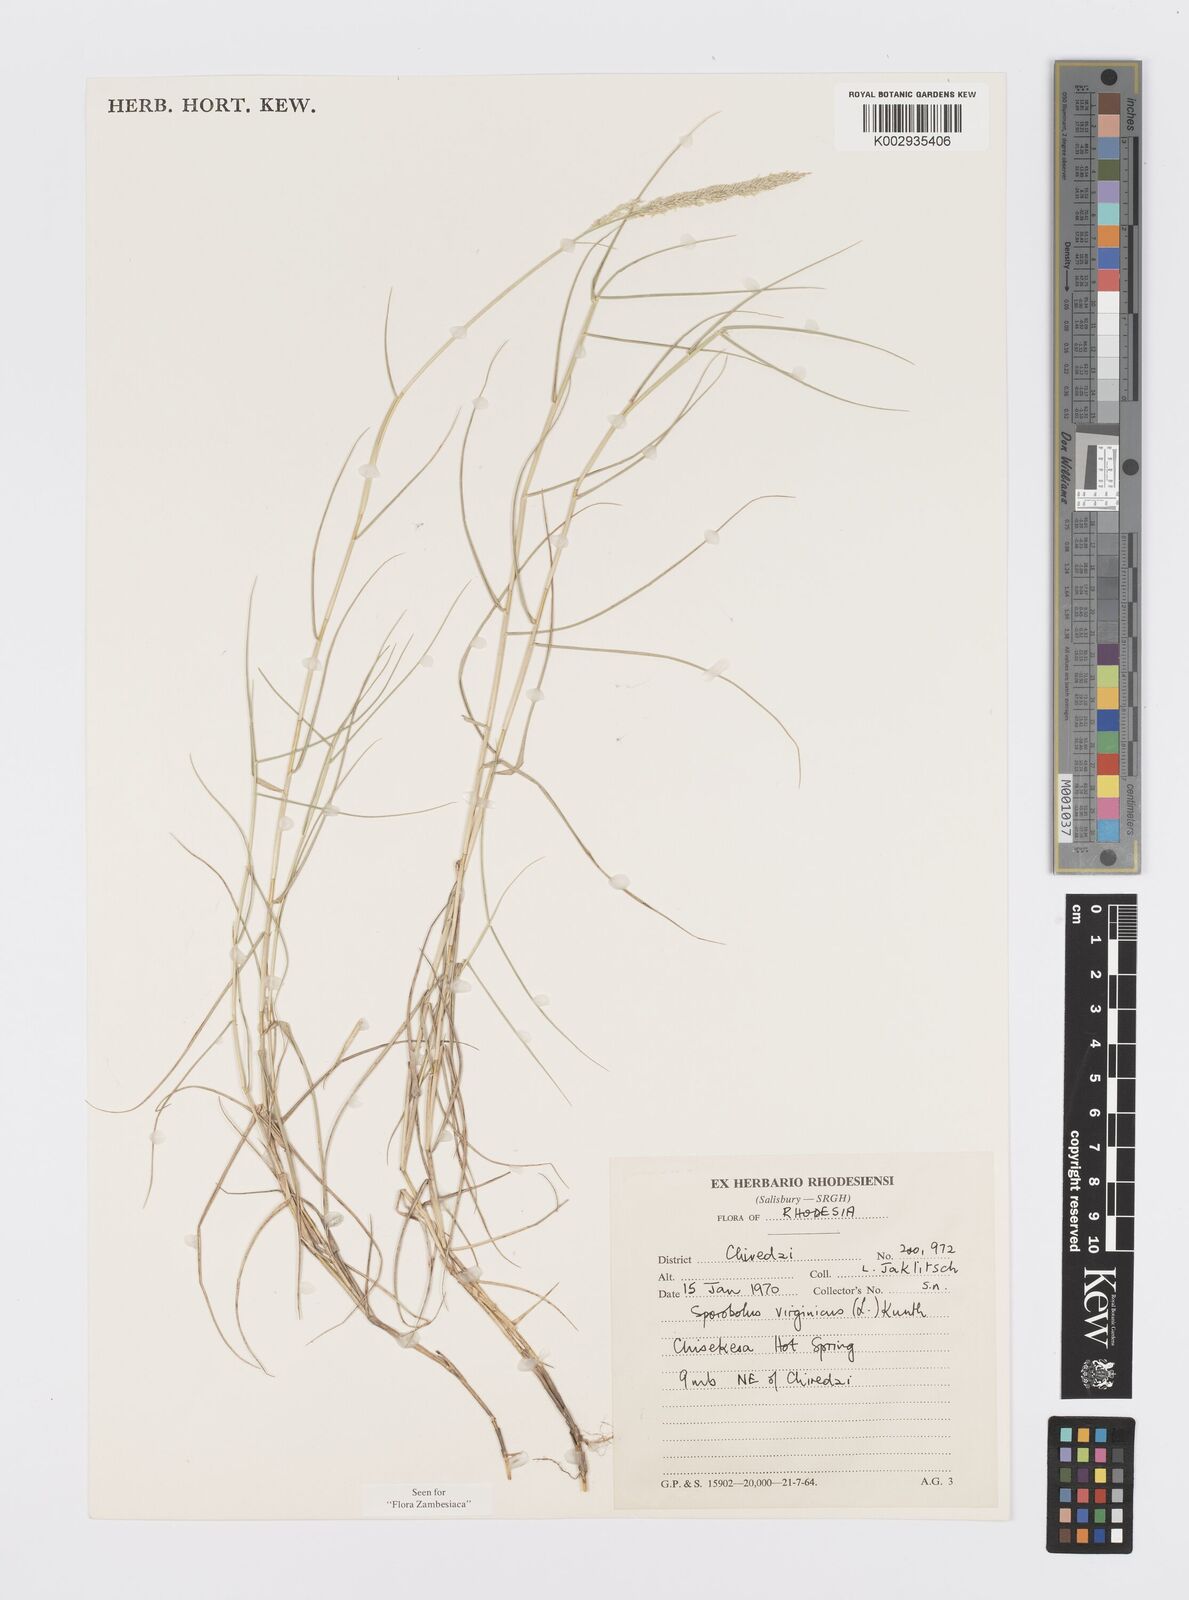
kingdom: Plantae
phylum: Tracheophyta
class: Liliopsida
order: Poales
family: Poaceae
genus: Sporobolus
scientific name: Sporobolus virginicus
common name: Beach dropseed
